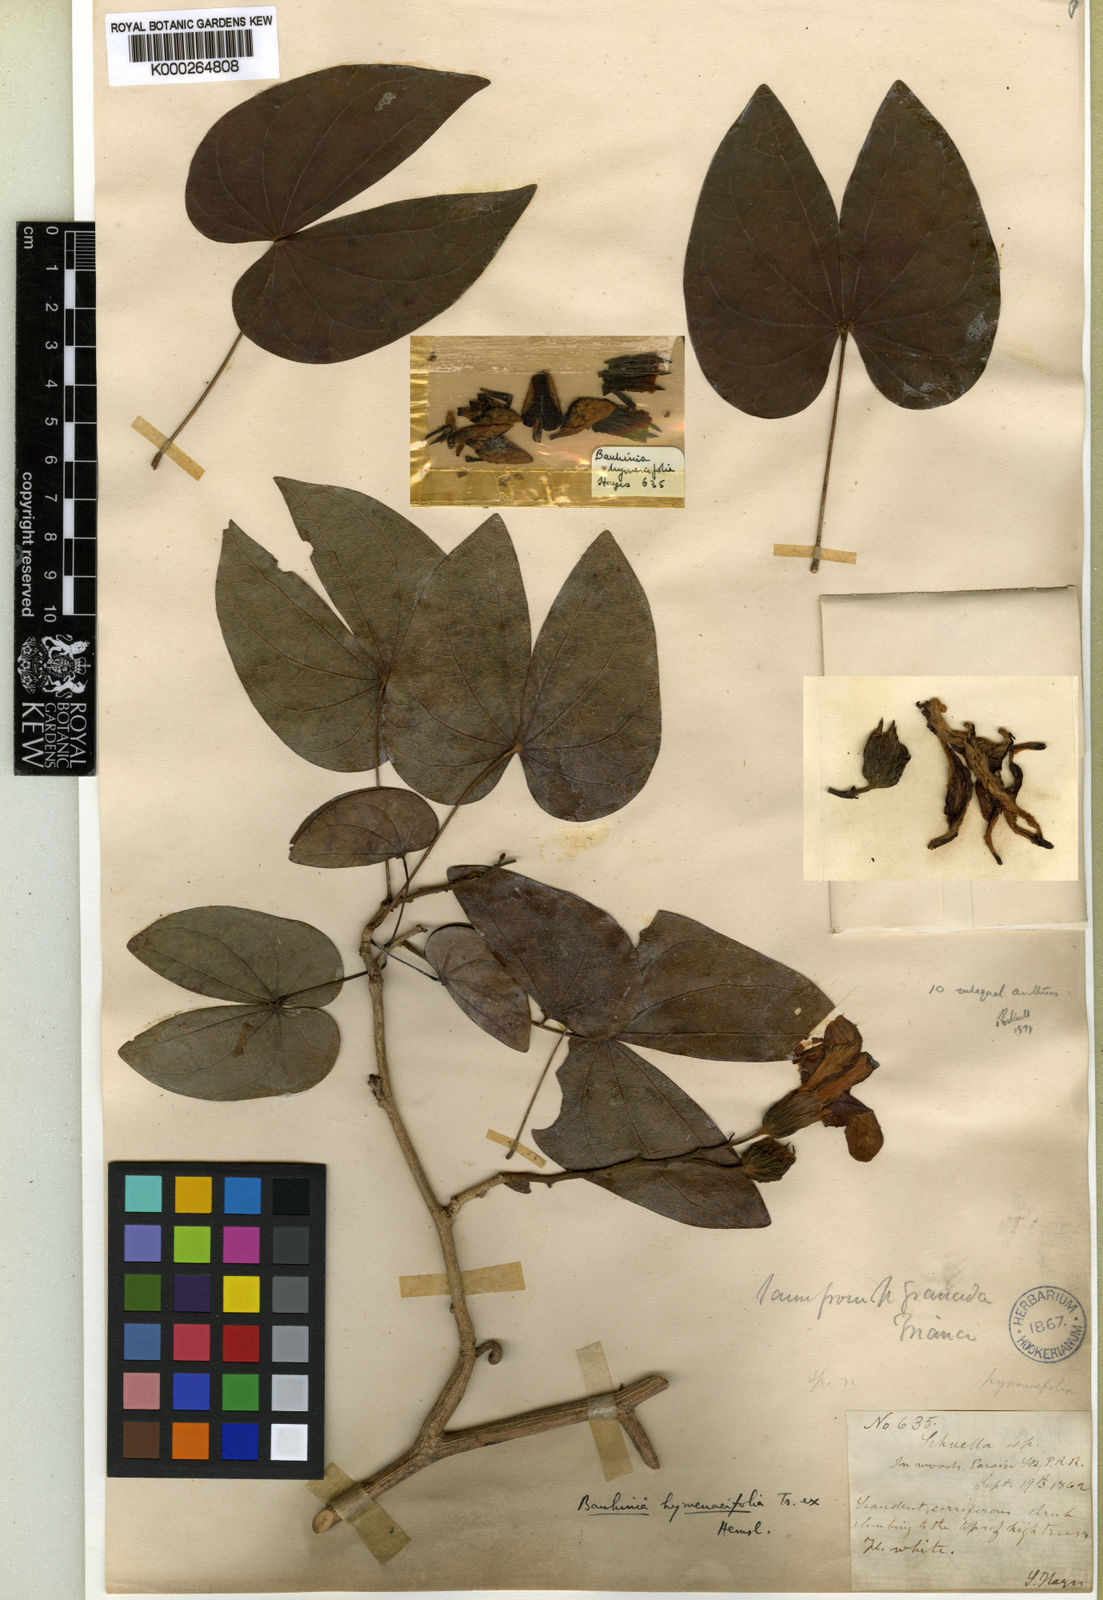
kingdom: Plantae
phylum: Tracheophyta
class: Magnoliopsida
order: Fabales
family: Fabaceae
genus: Schnella
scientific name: Schnella hymenaeifolia
